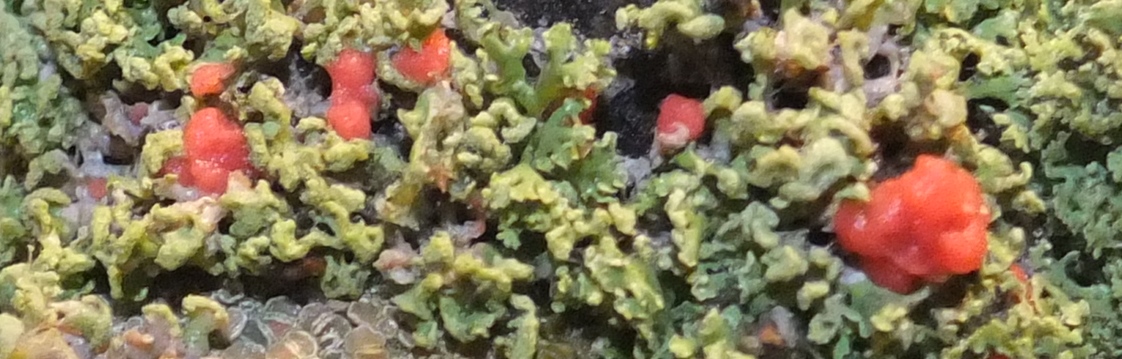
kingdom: Fungi
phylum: Ascomycota
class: Sordariomycetes
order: Hypocreales
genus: Illosporiopsis
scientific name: Illosporiopsis christiansenii
